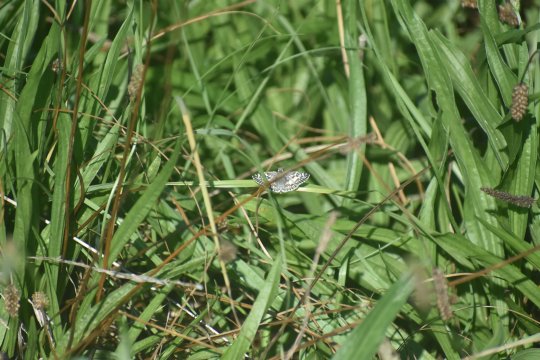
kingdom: Animalia
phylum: Arthropoda
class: Insecta
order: Lepidoptera
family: Hesperiidae
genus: Pyrgus
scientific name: Pyrgus
